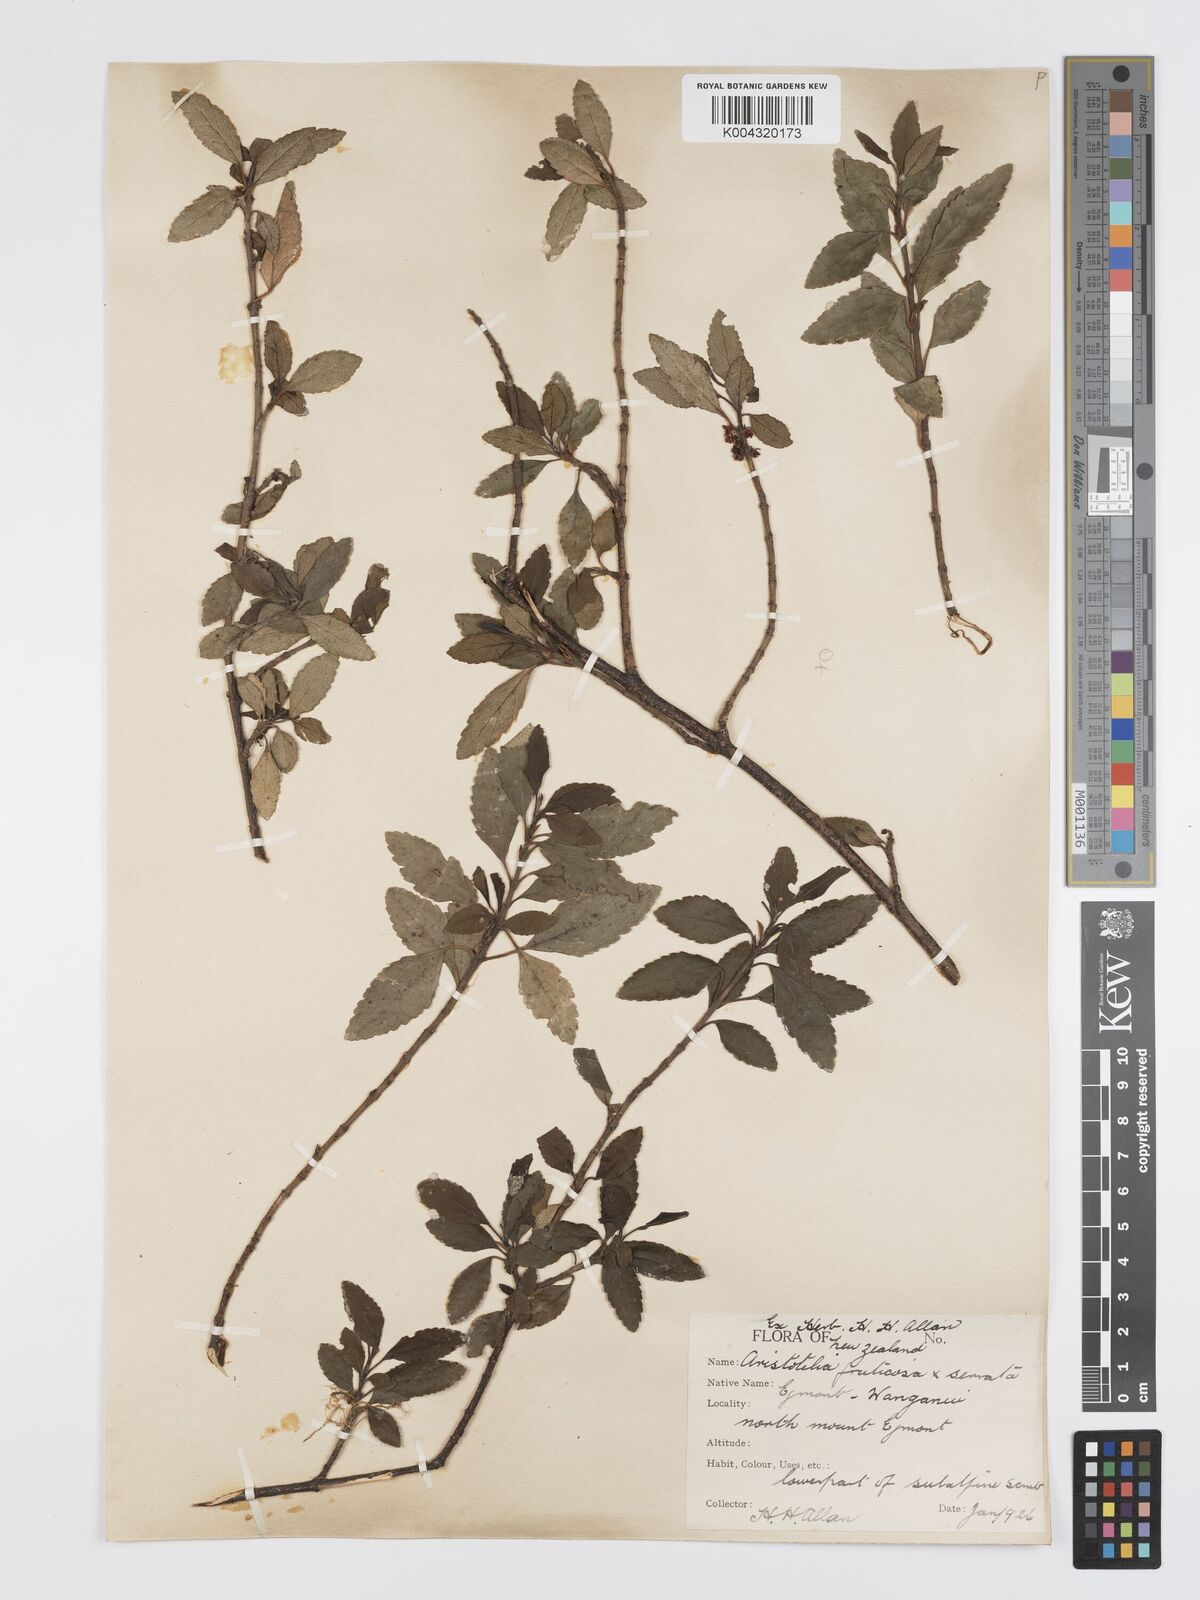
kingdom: Plantae
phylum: Tracheophyta
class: Magnoliopsida
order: Oxalidales
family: Elaeocarpaceae
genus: Aristotelia
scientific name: Aristotelia fruticosa
